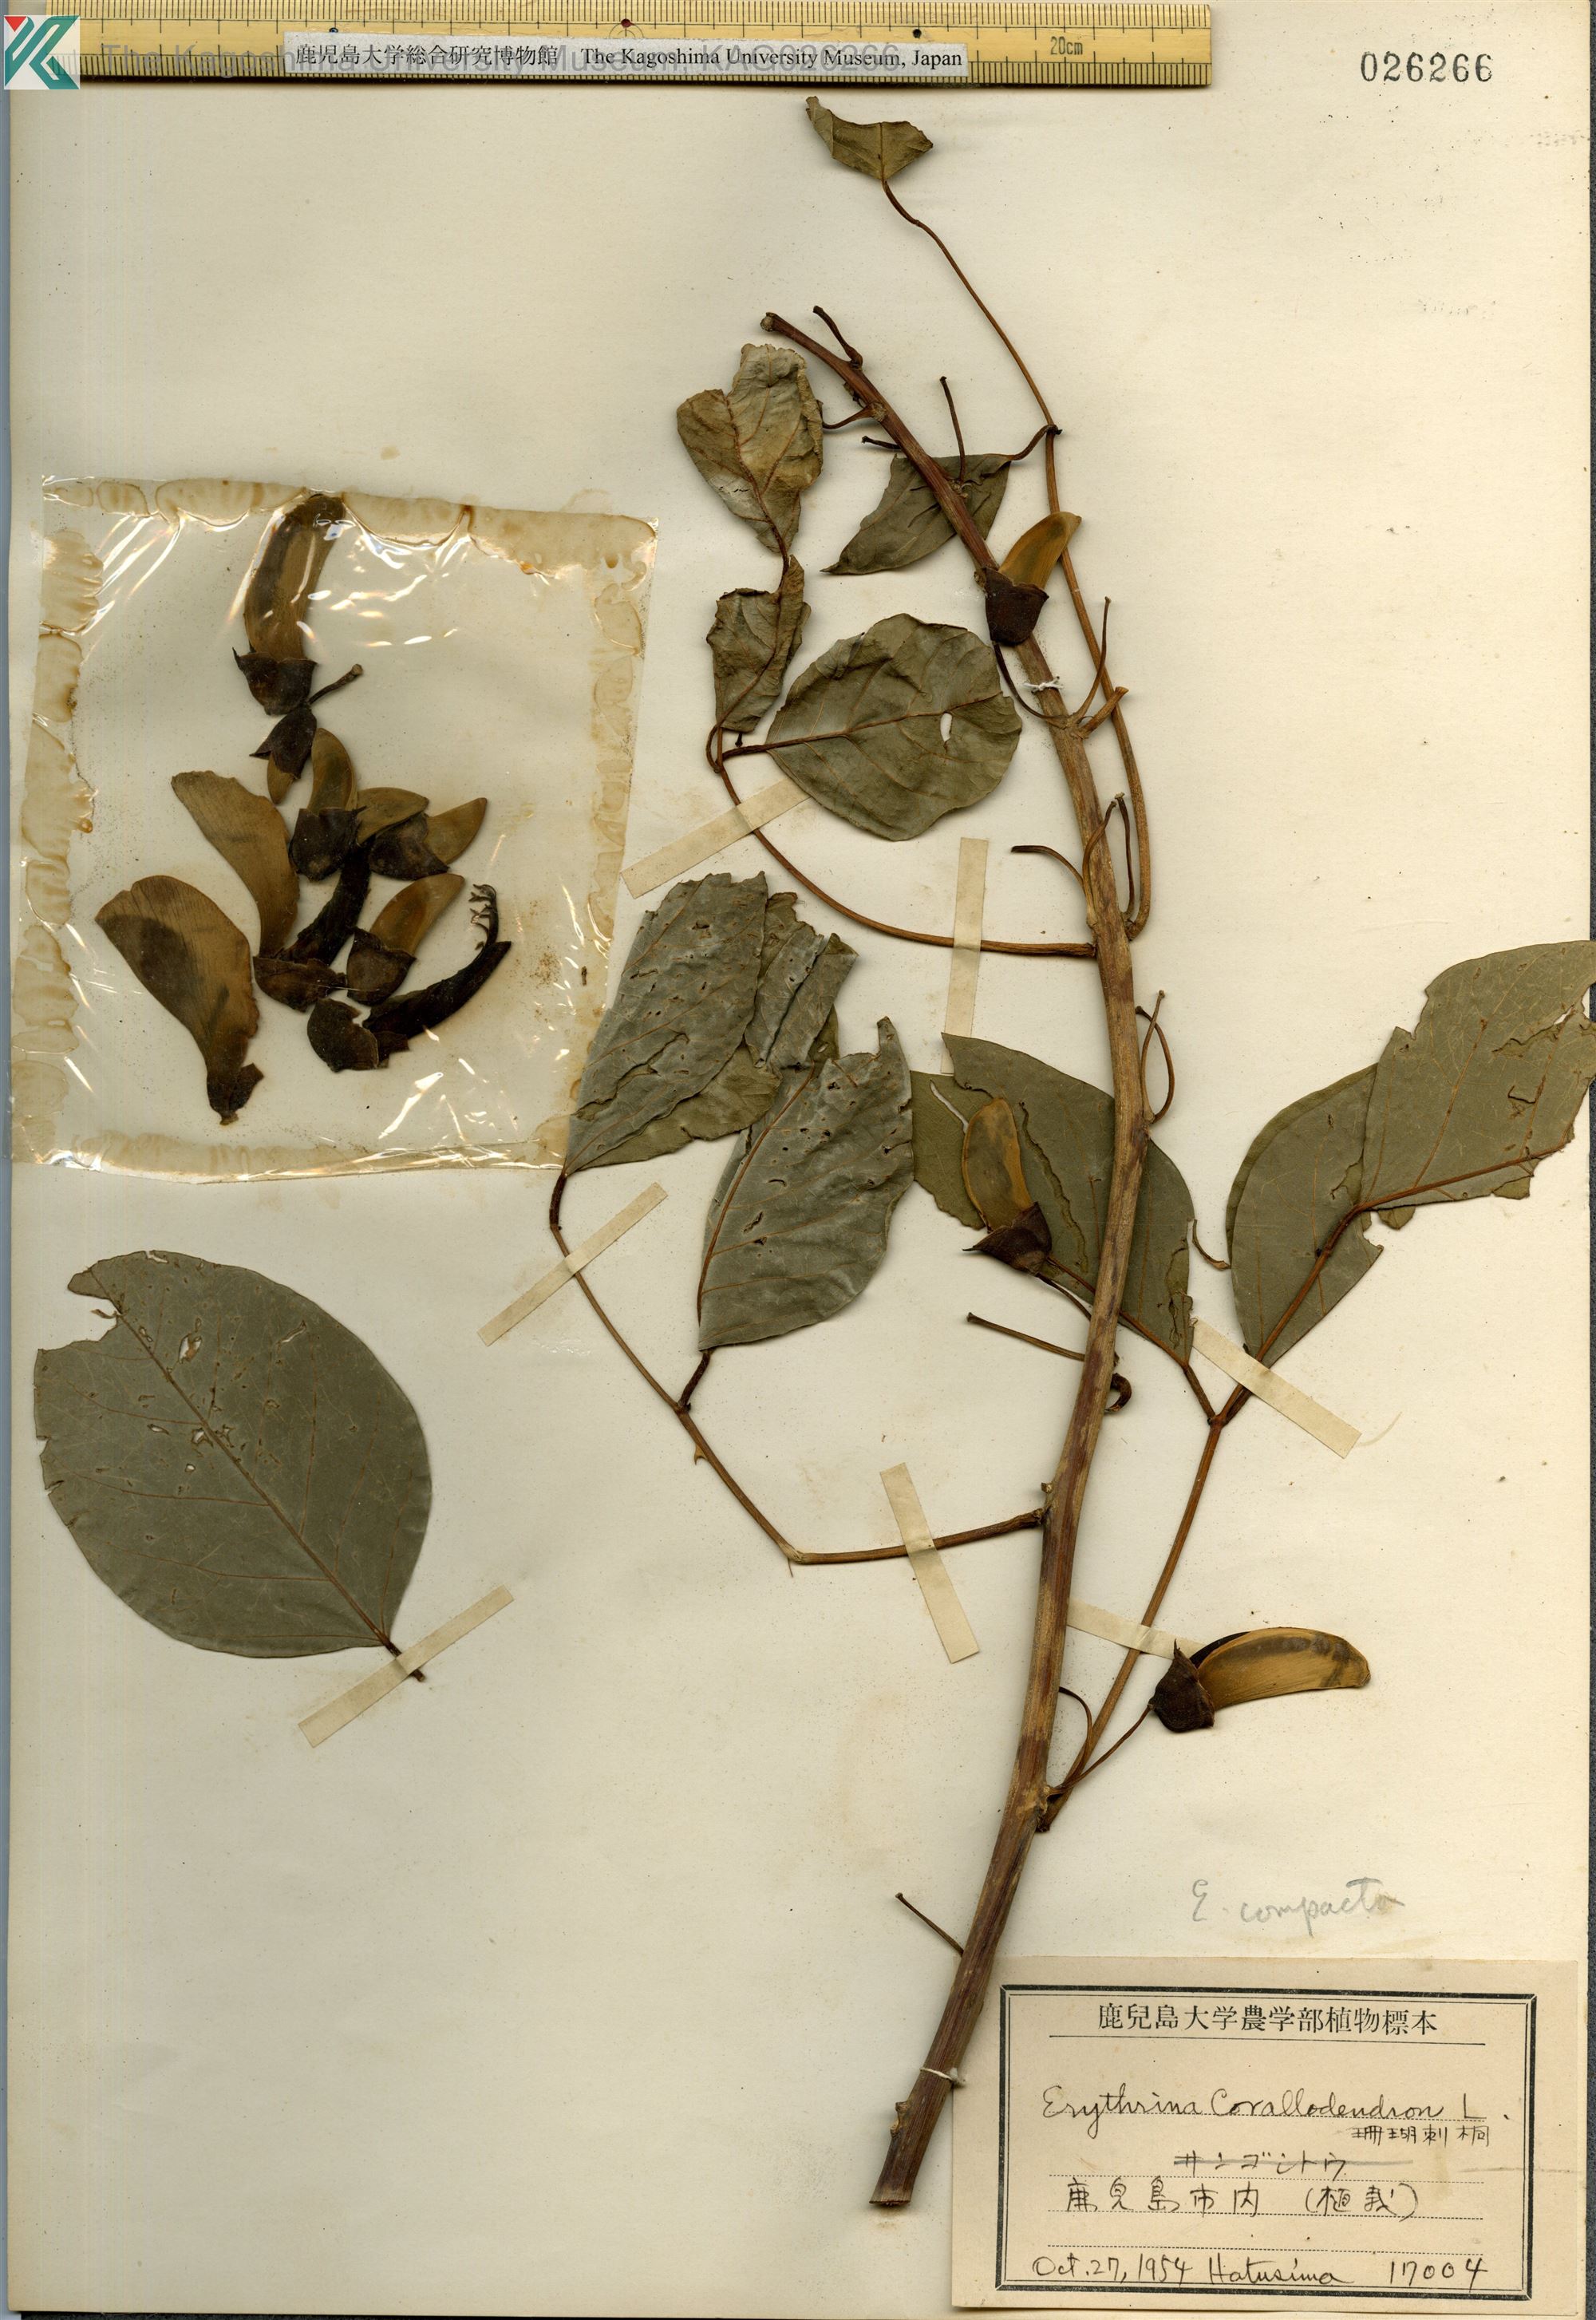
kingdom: Plantae
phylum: Tracheophyta
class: Magnoliopsida
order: Fabales
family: Fabaceae
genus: Erythrina
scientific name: Erythrina crista-galli
